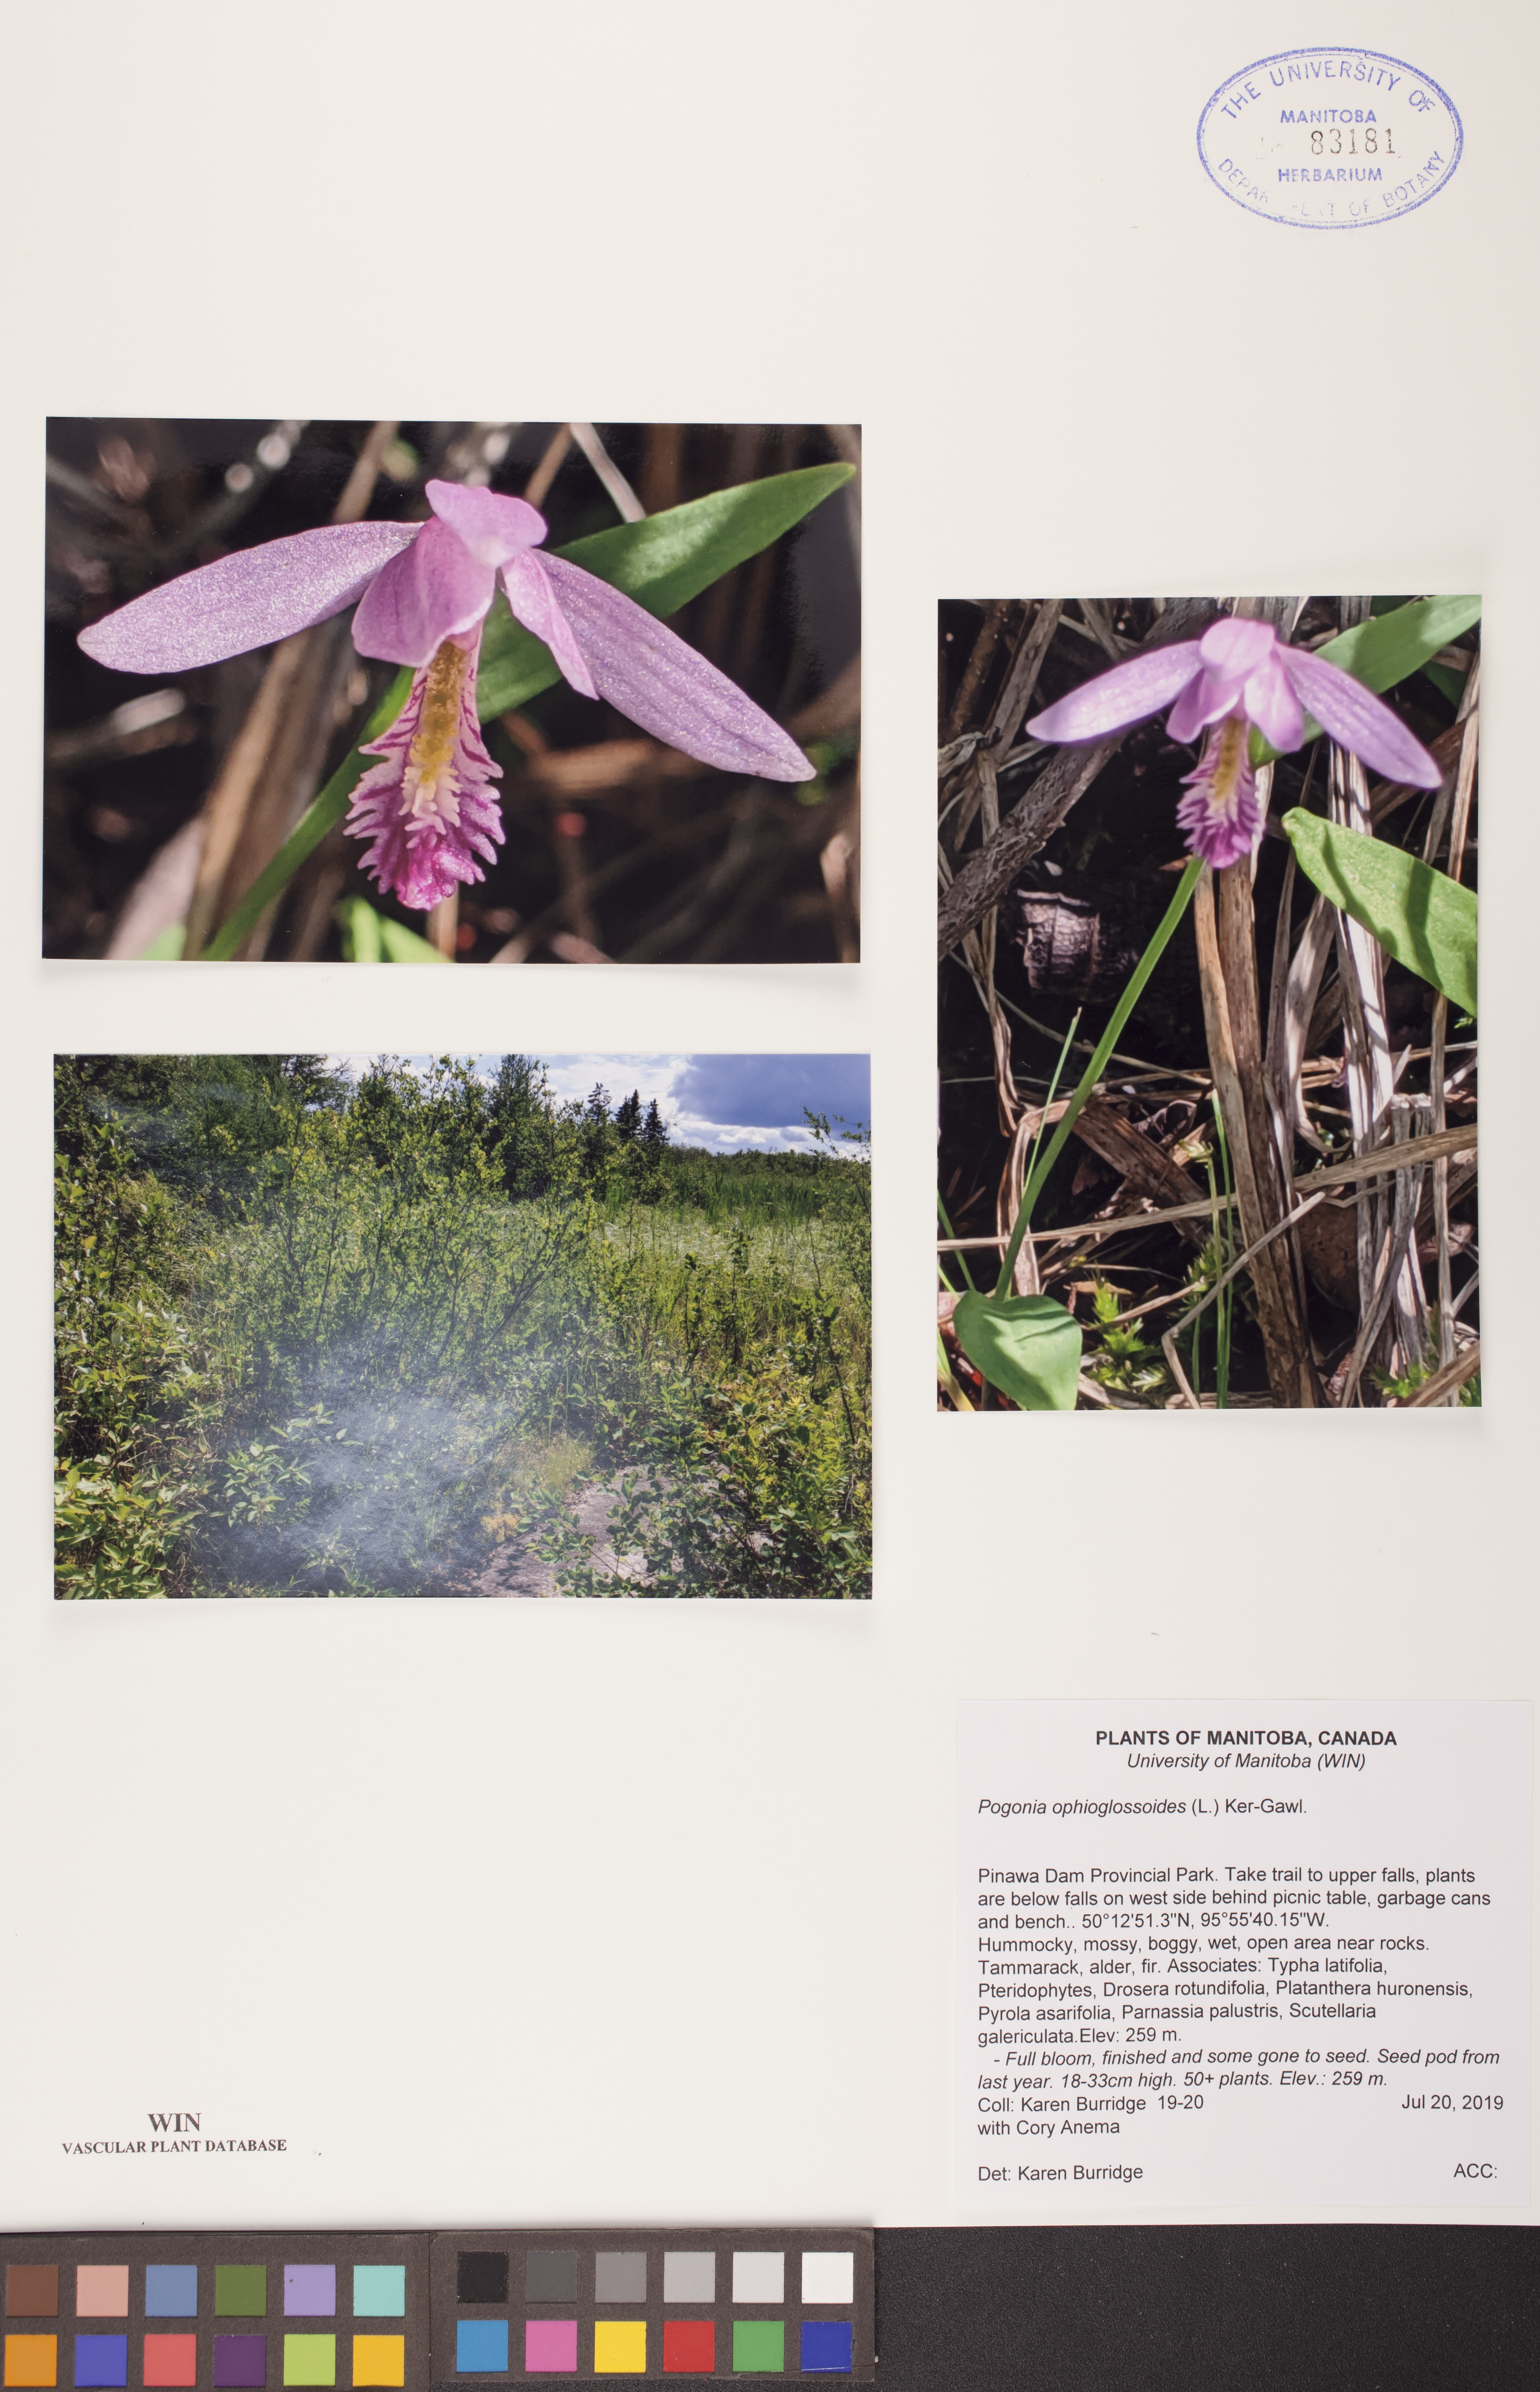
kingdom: Plantae
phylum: Tracheophyta
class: Liliopsida
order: Asparagales
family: Orchidaceae
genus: Pogonia
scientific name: Pogonia ophioglossoides
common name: Rose pogonia
